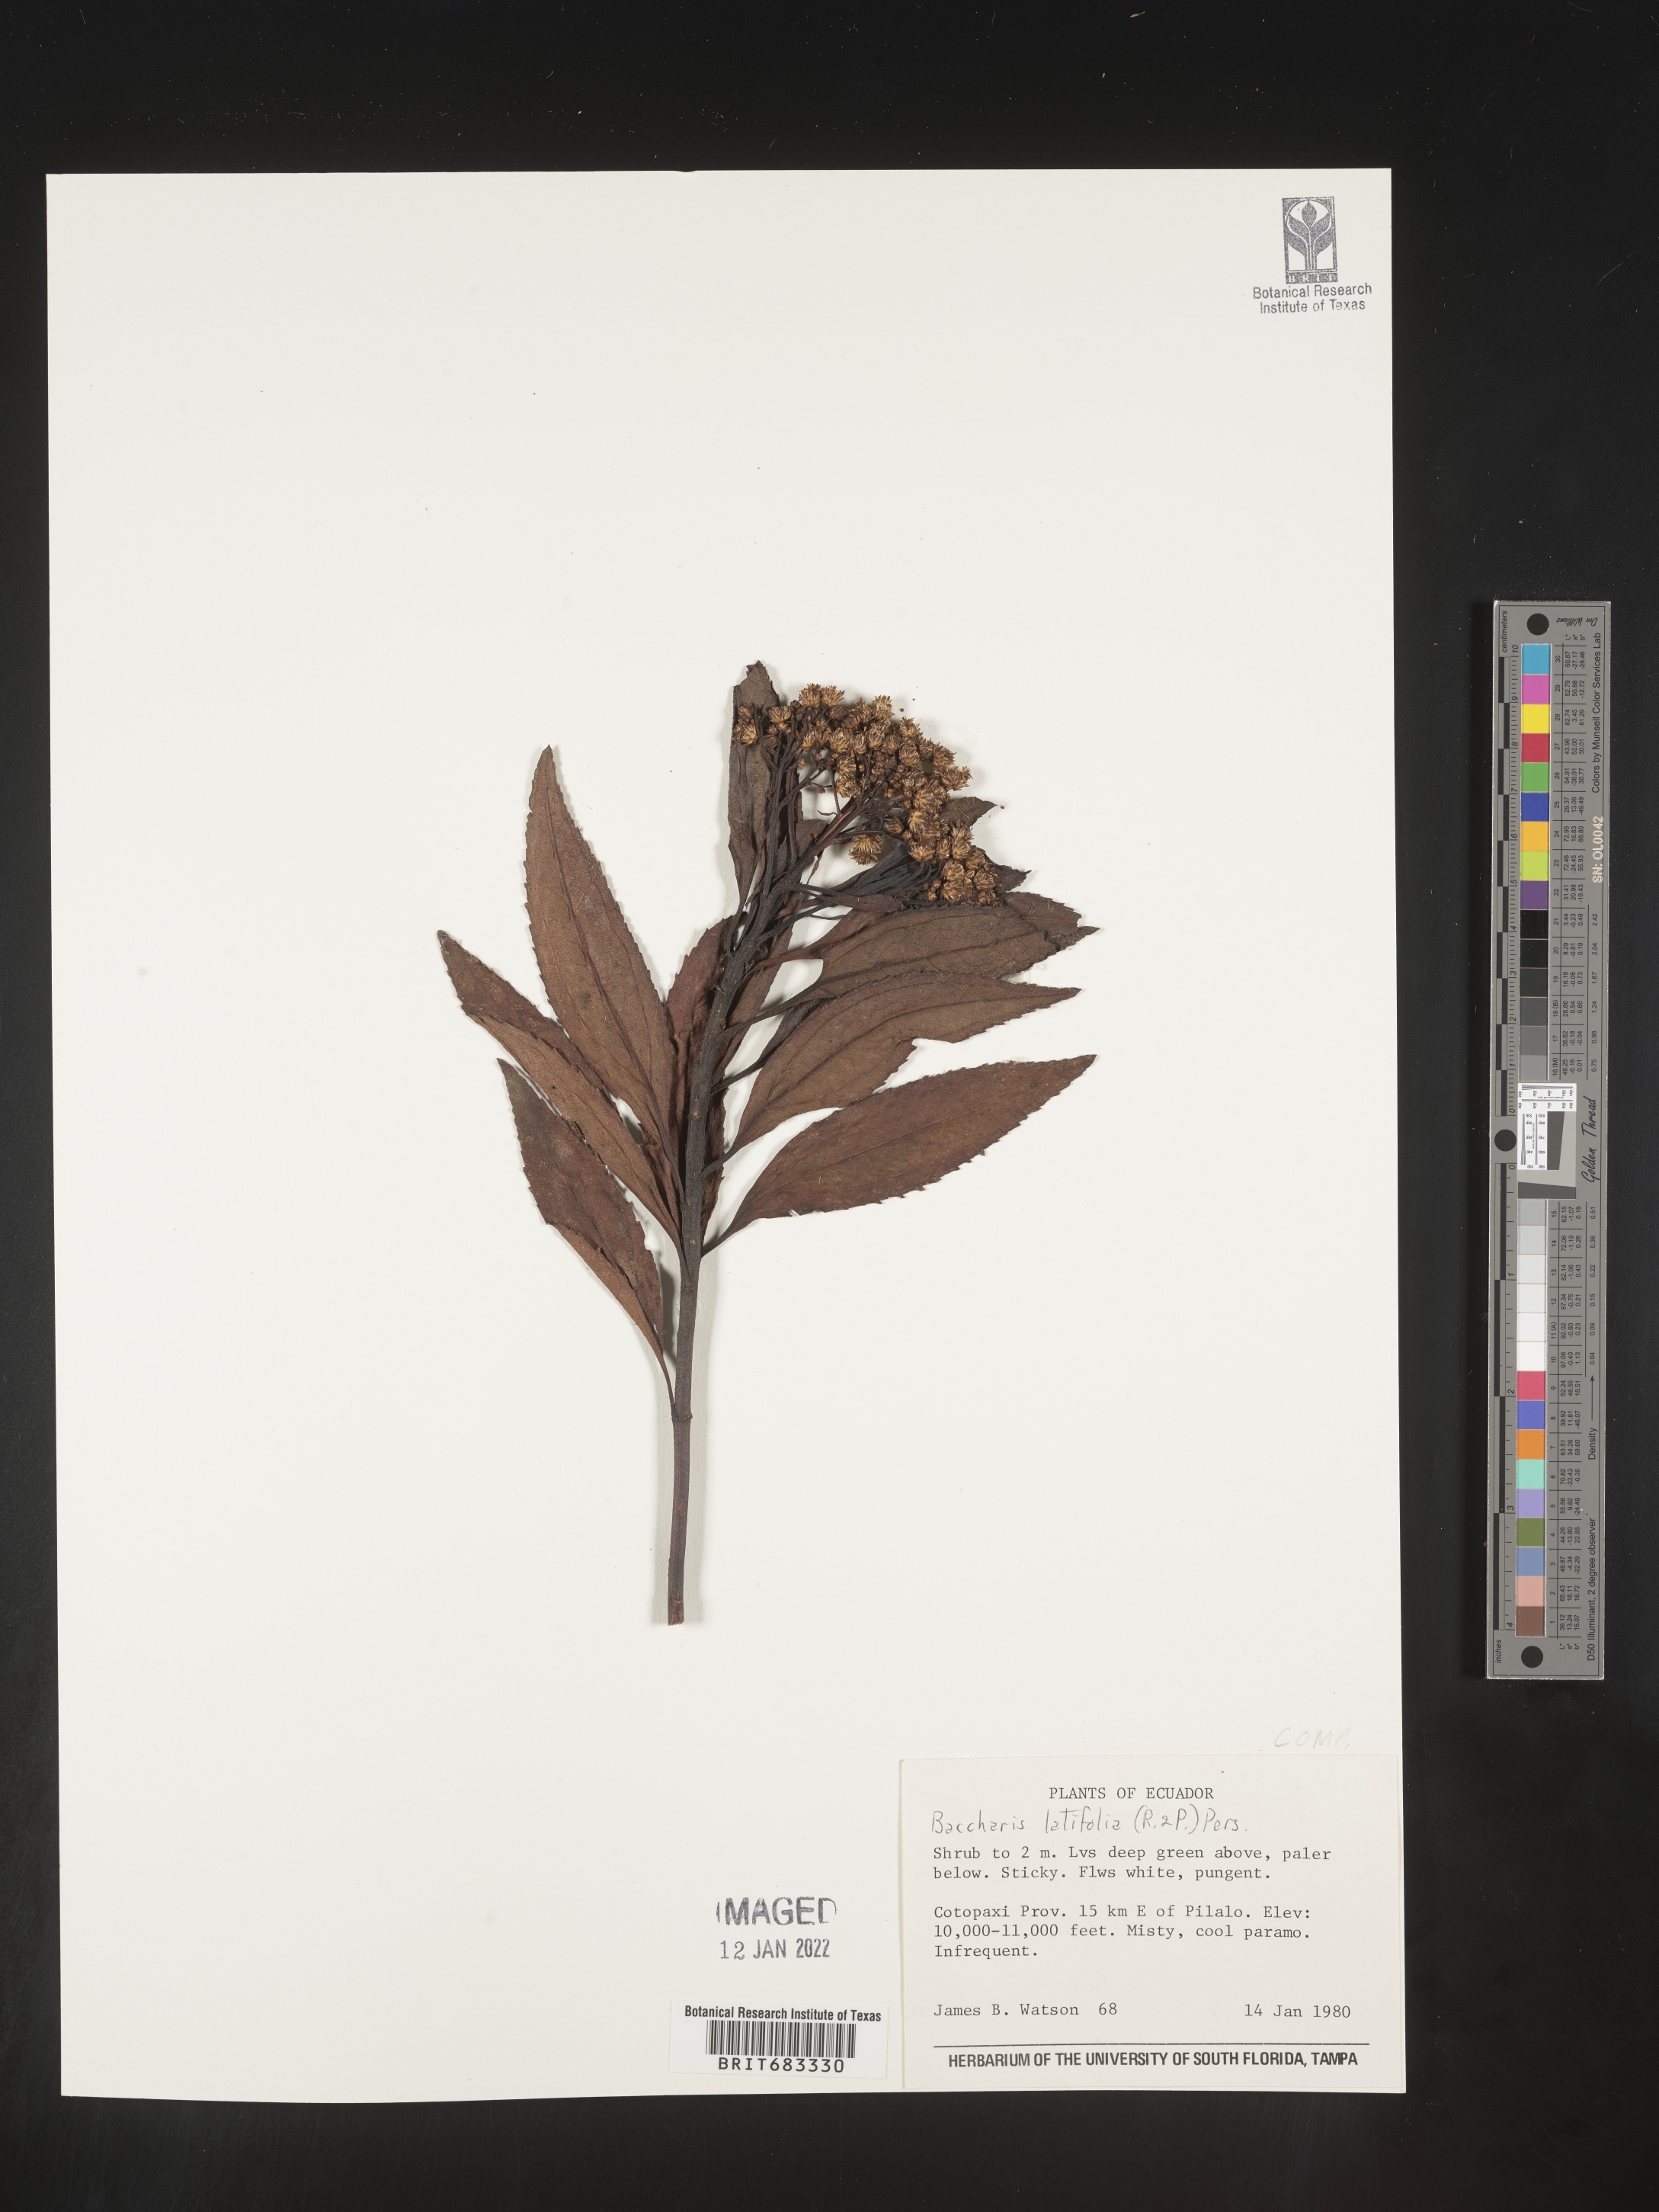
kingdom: Plantae
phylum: Tracheophyta
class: Magnoliopsida
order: Asterales
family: Asteraceae
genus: Baccharis
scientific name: Baccharis
